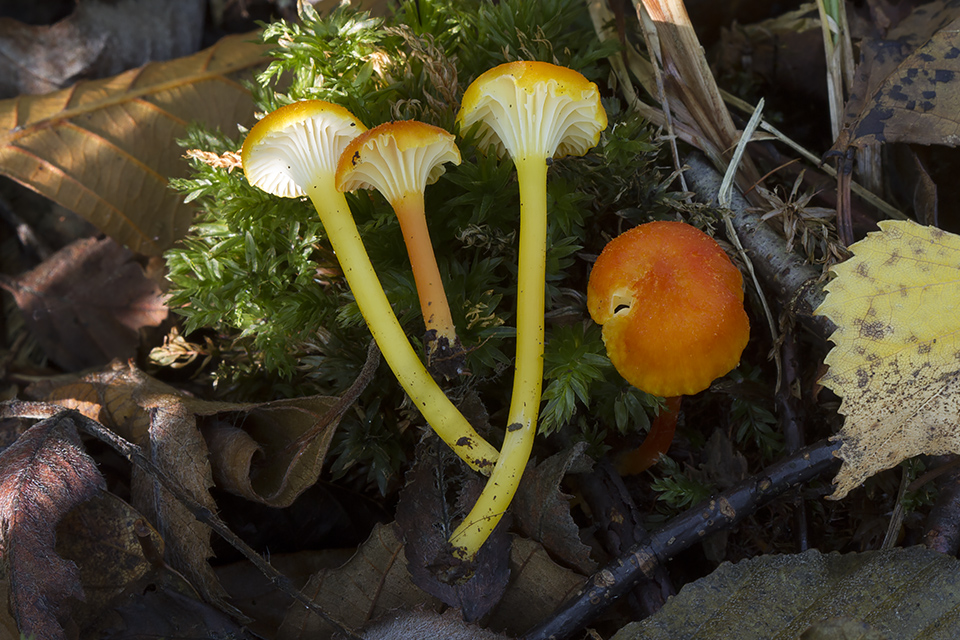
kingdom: Fungi
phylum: Basidiomycota
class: Agaricomycetes
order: Agaricales
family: Hygrophoraceae
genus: Hygrocybe
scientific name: Hygrocybe cantharellus
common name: kantarel-vokshat
